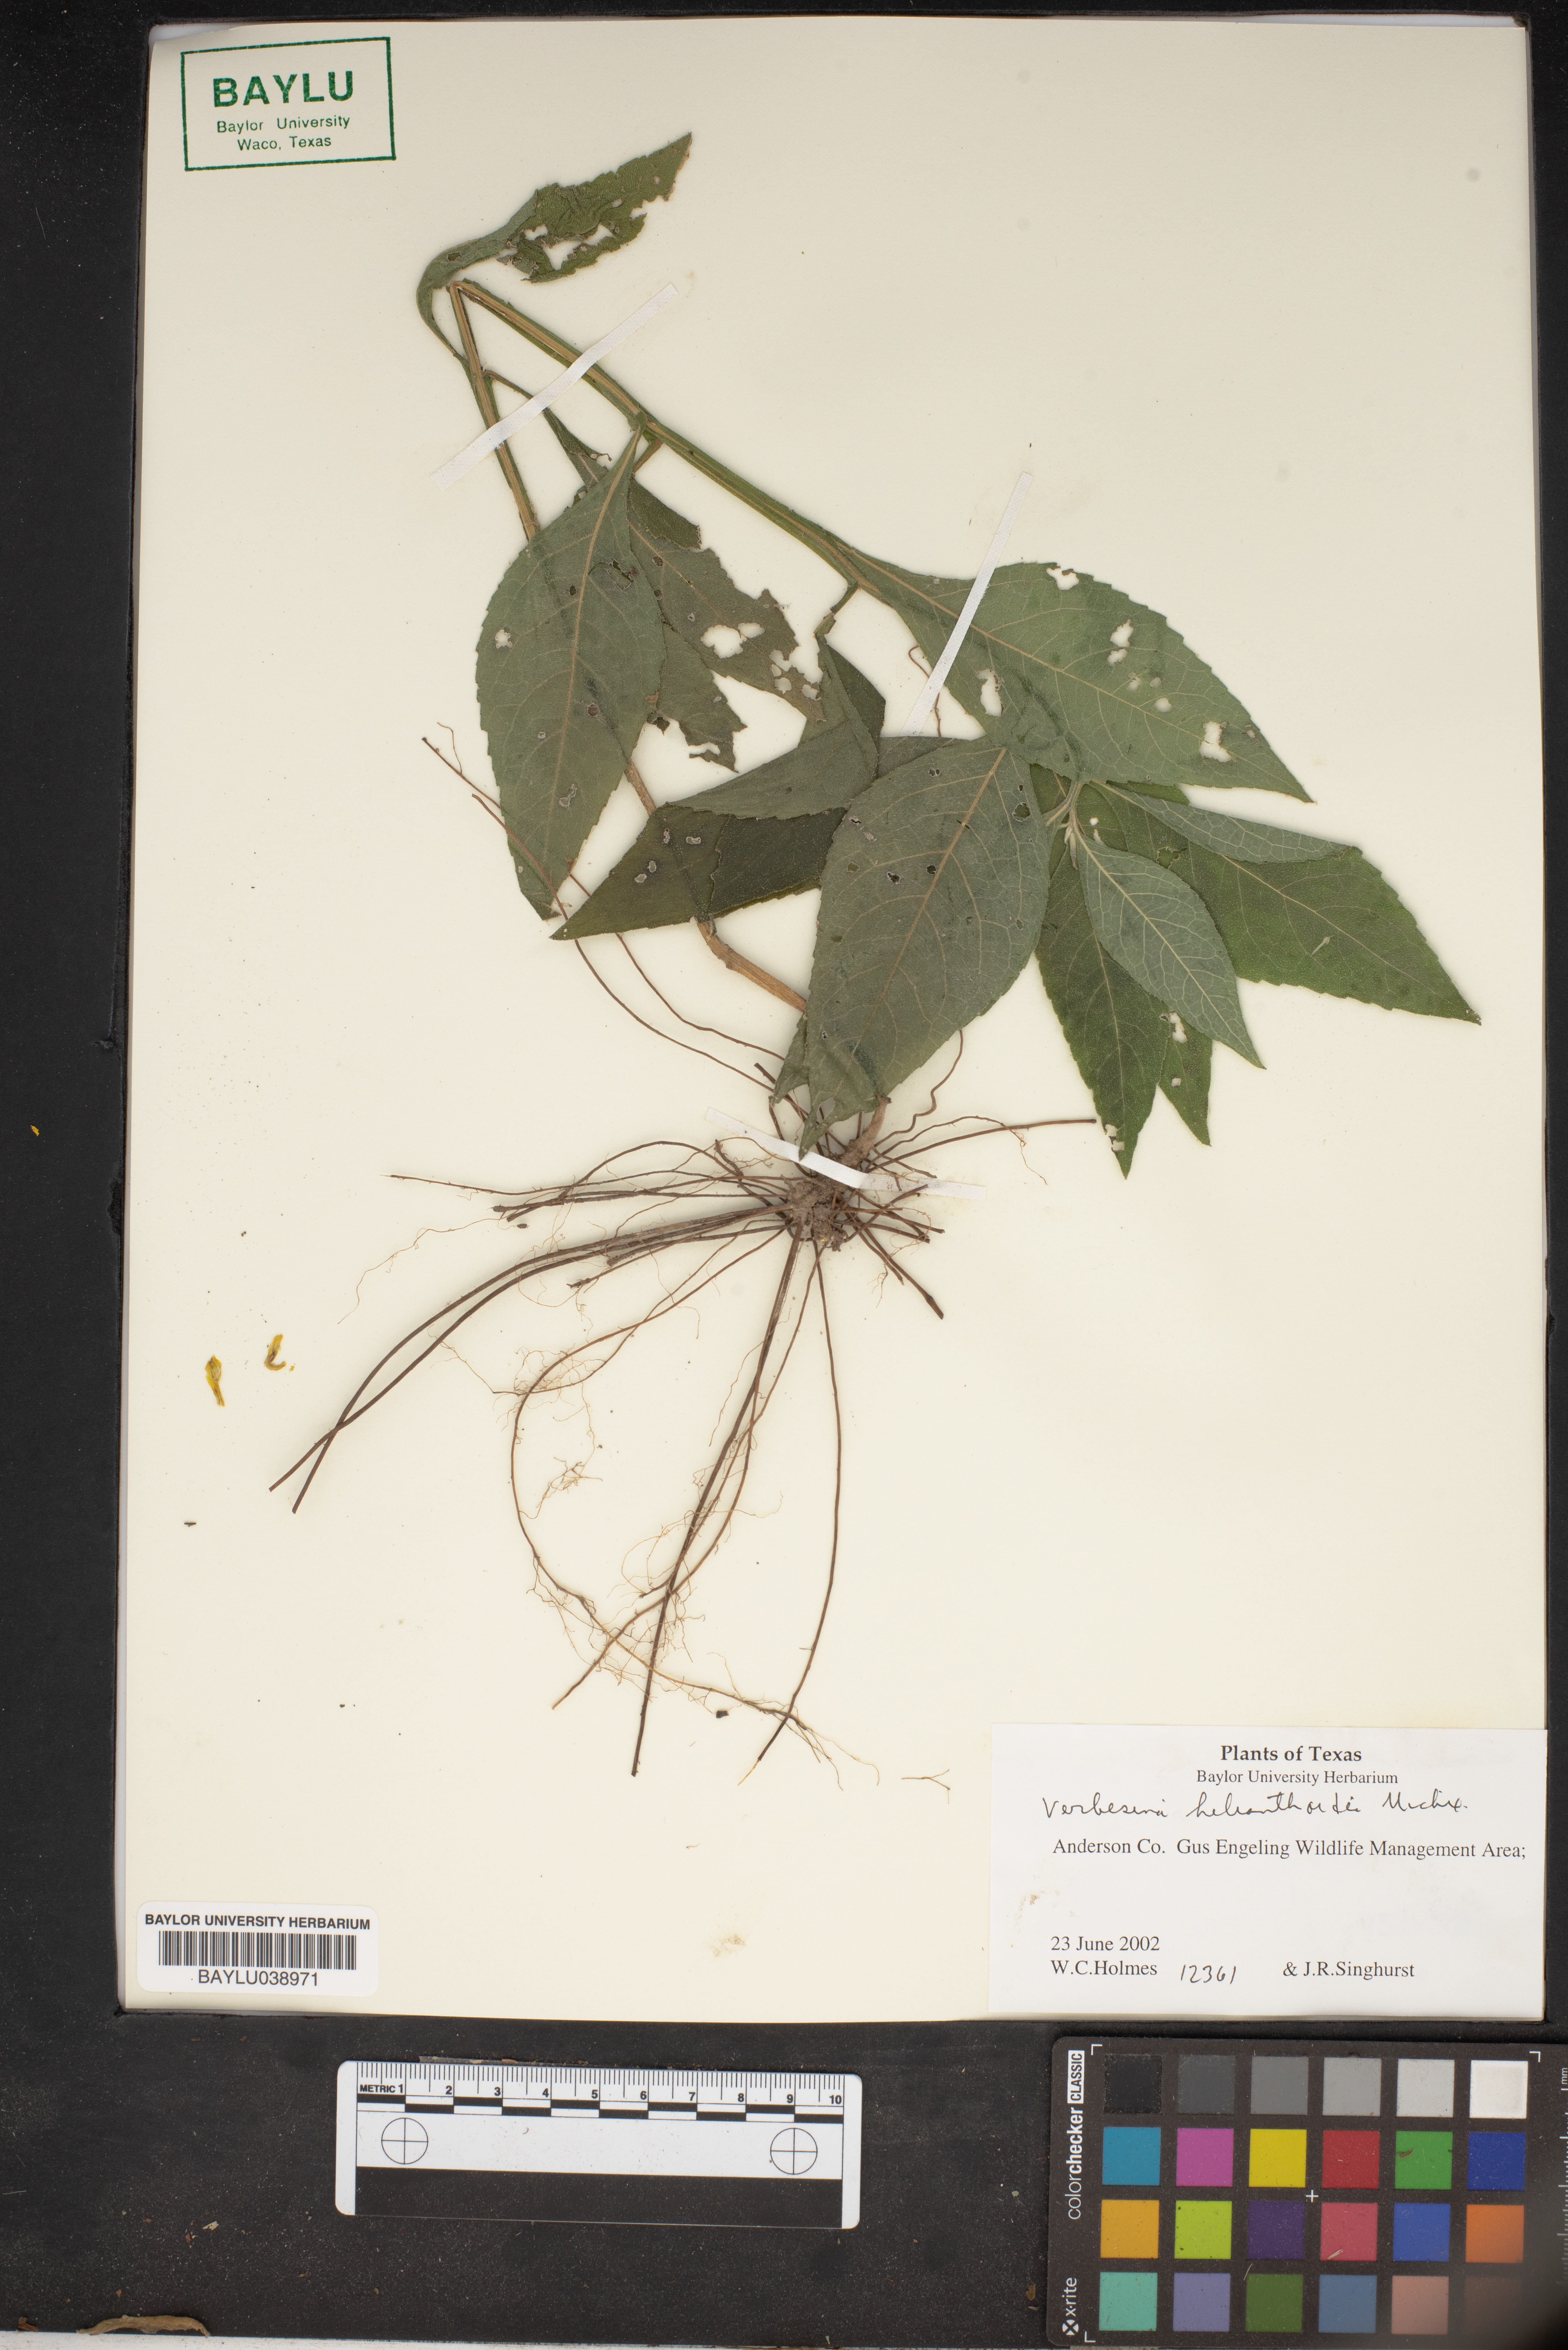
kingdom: Plantae
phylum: Tracheophyta
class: Magnoliopsida
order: Asterales
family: Asteraceae
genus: Verbesina
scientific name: Verbesina helianthoides
